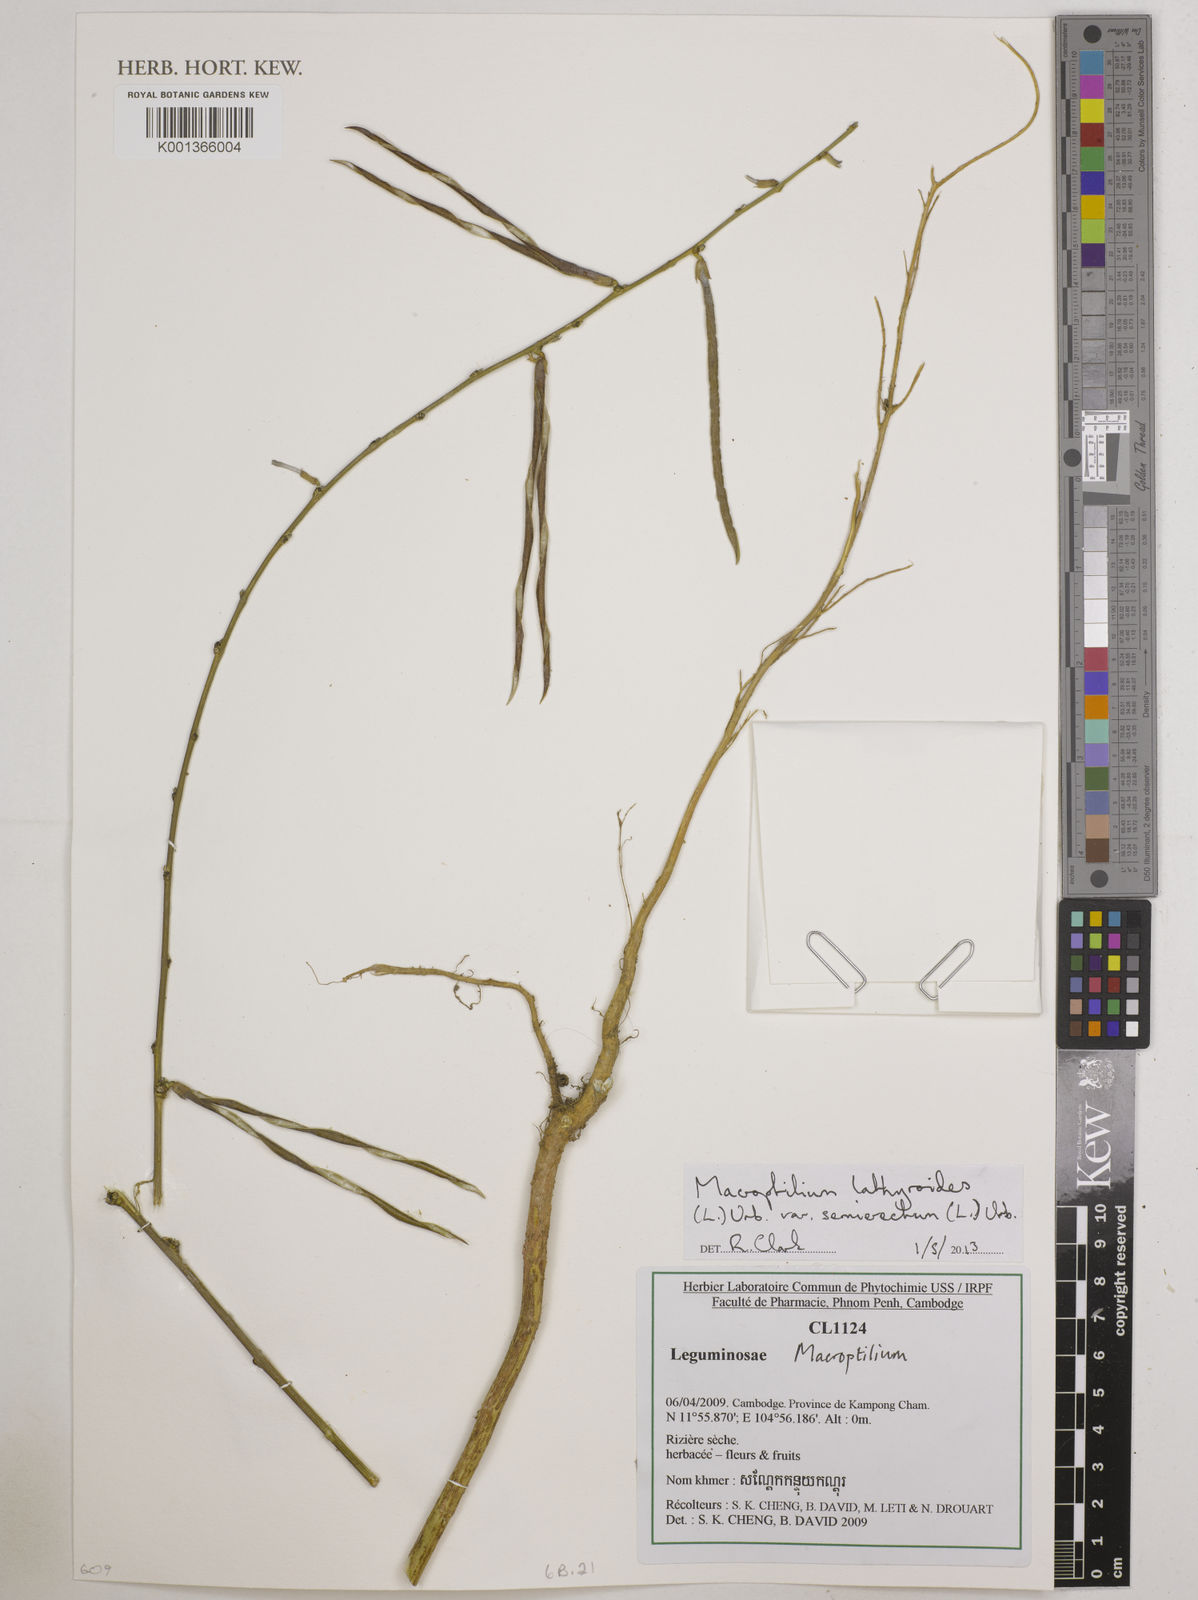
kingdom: Plantae
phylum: Tracheophyta
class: Magnoliopsida
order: Fabales
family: Fabaceae
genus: Macroptilium
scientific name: Macroptilium lathyroides
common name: Wild bushbean
